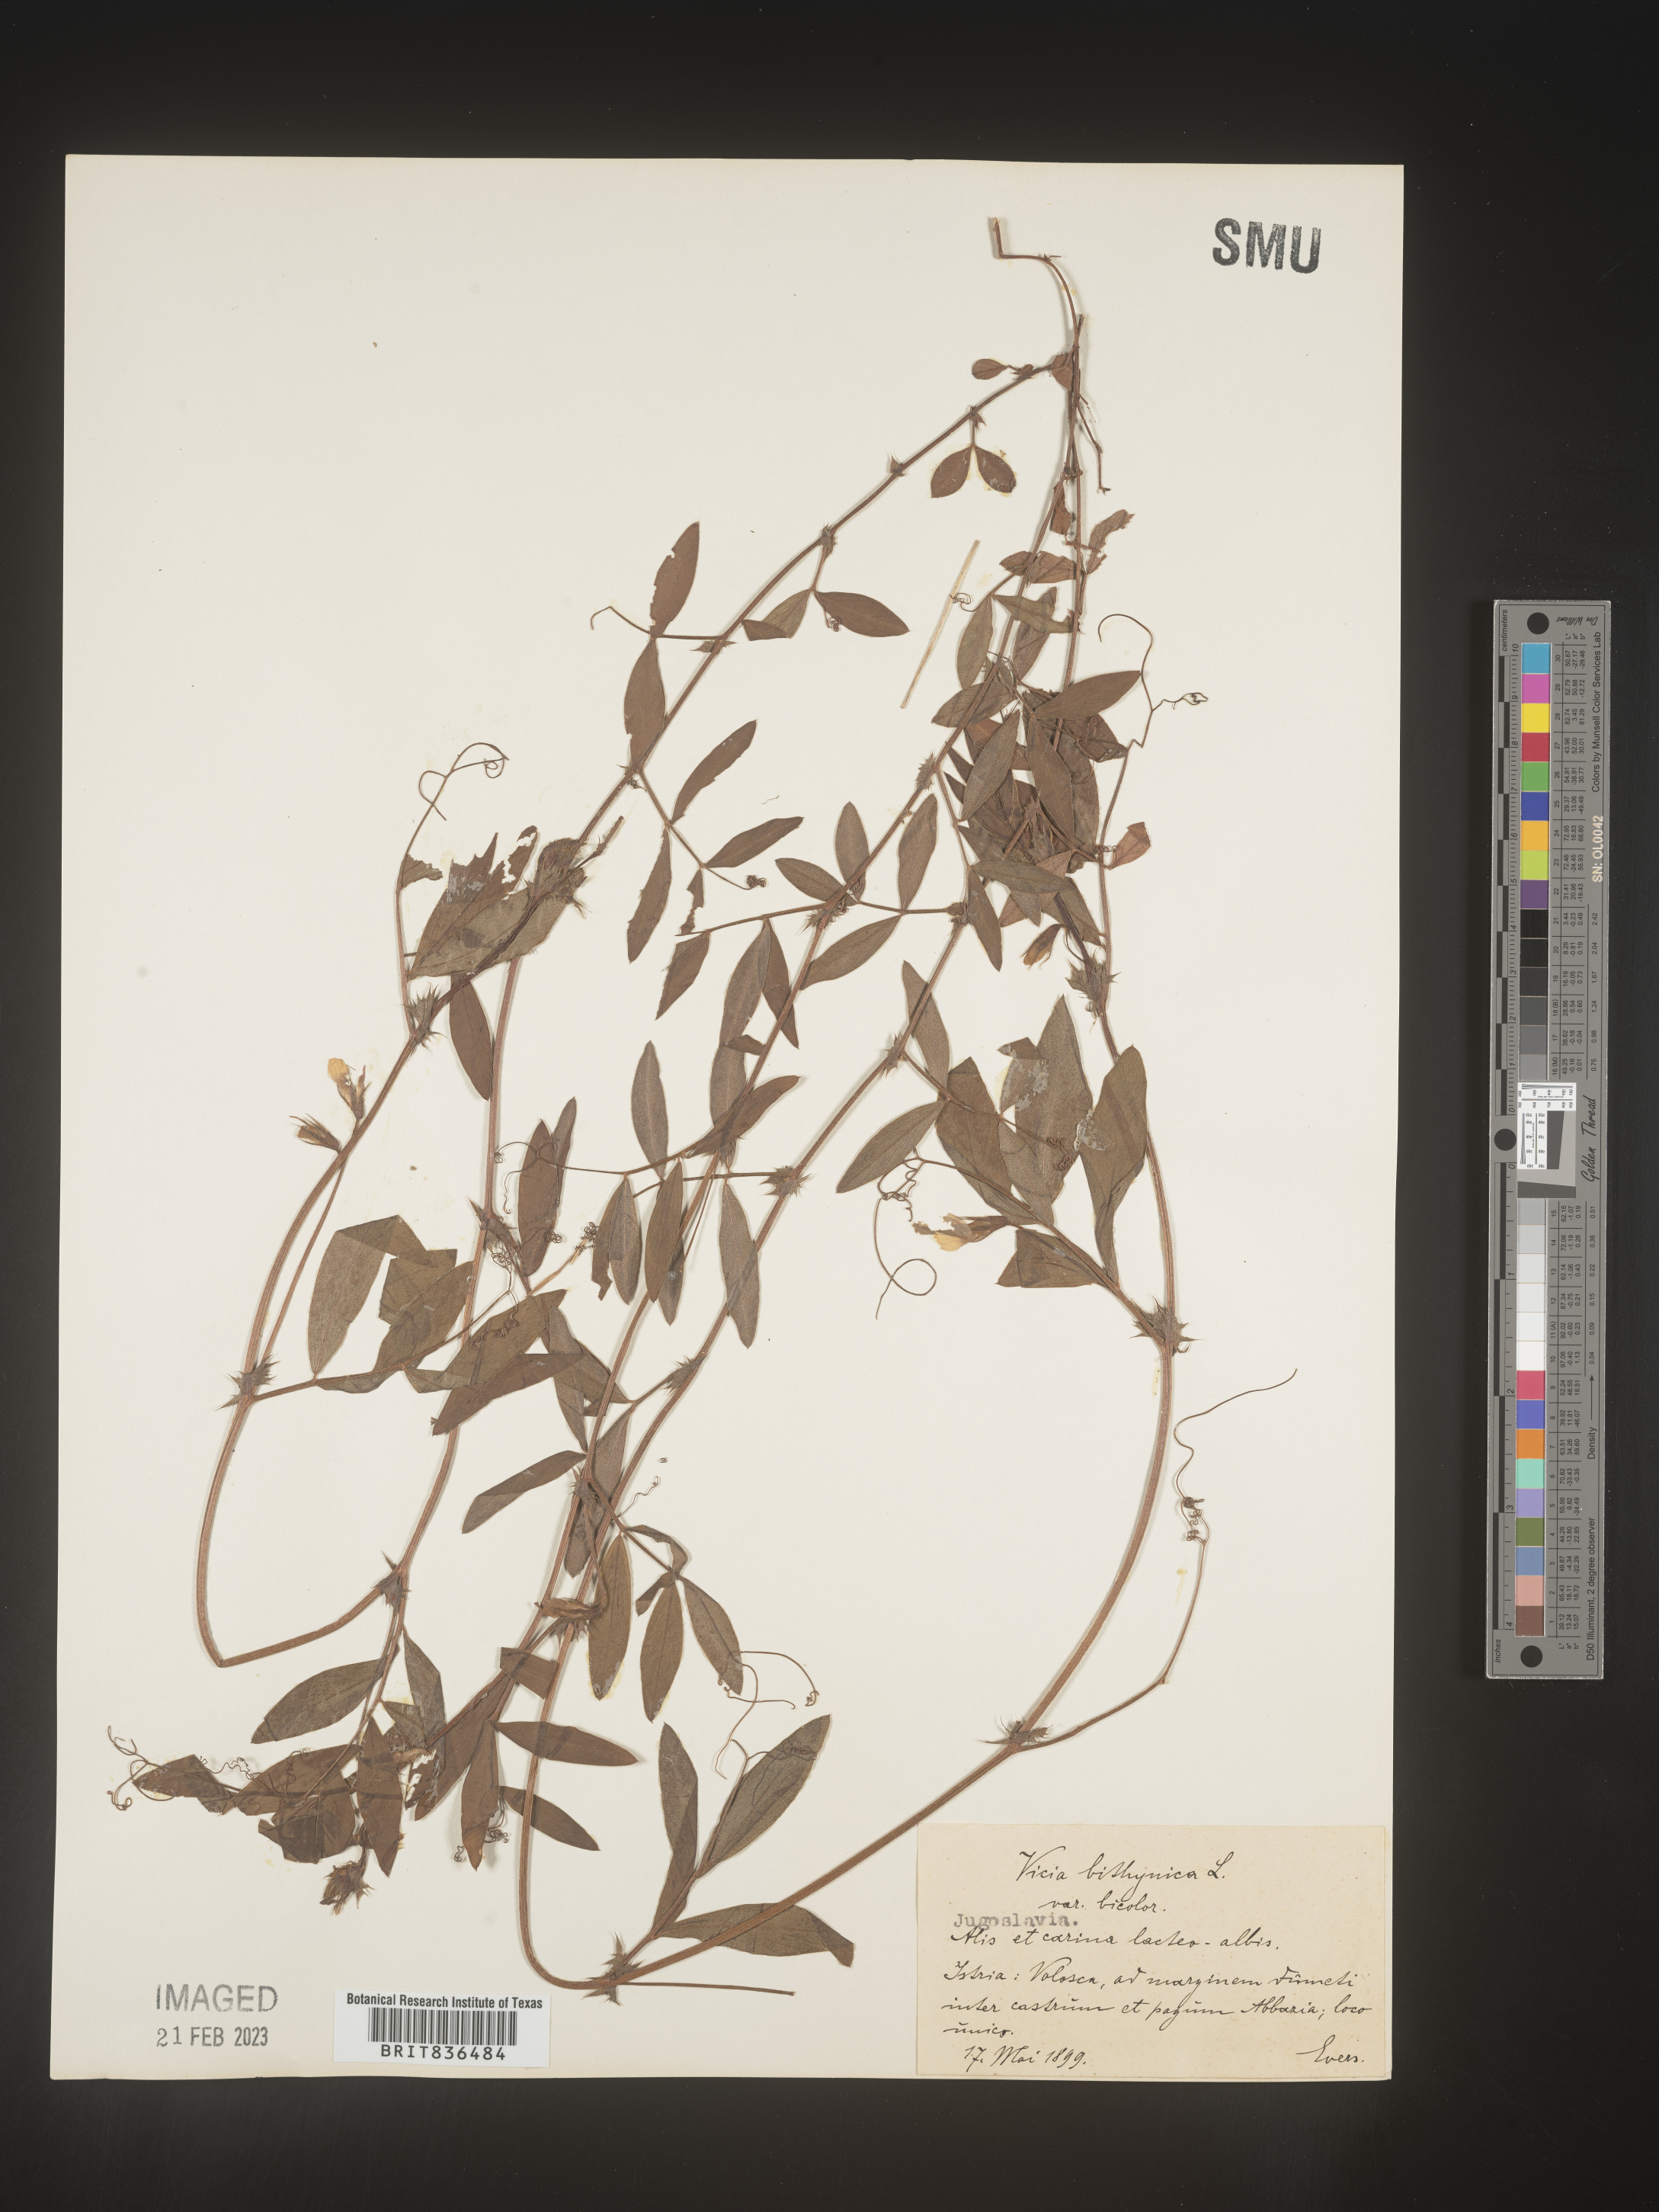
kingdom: Plantae
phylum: Tracheophyta
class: Magnoliopsida
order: Fabales
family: Fabaceae
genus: Vicia
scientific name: Vicia
